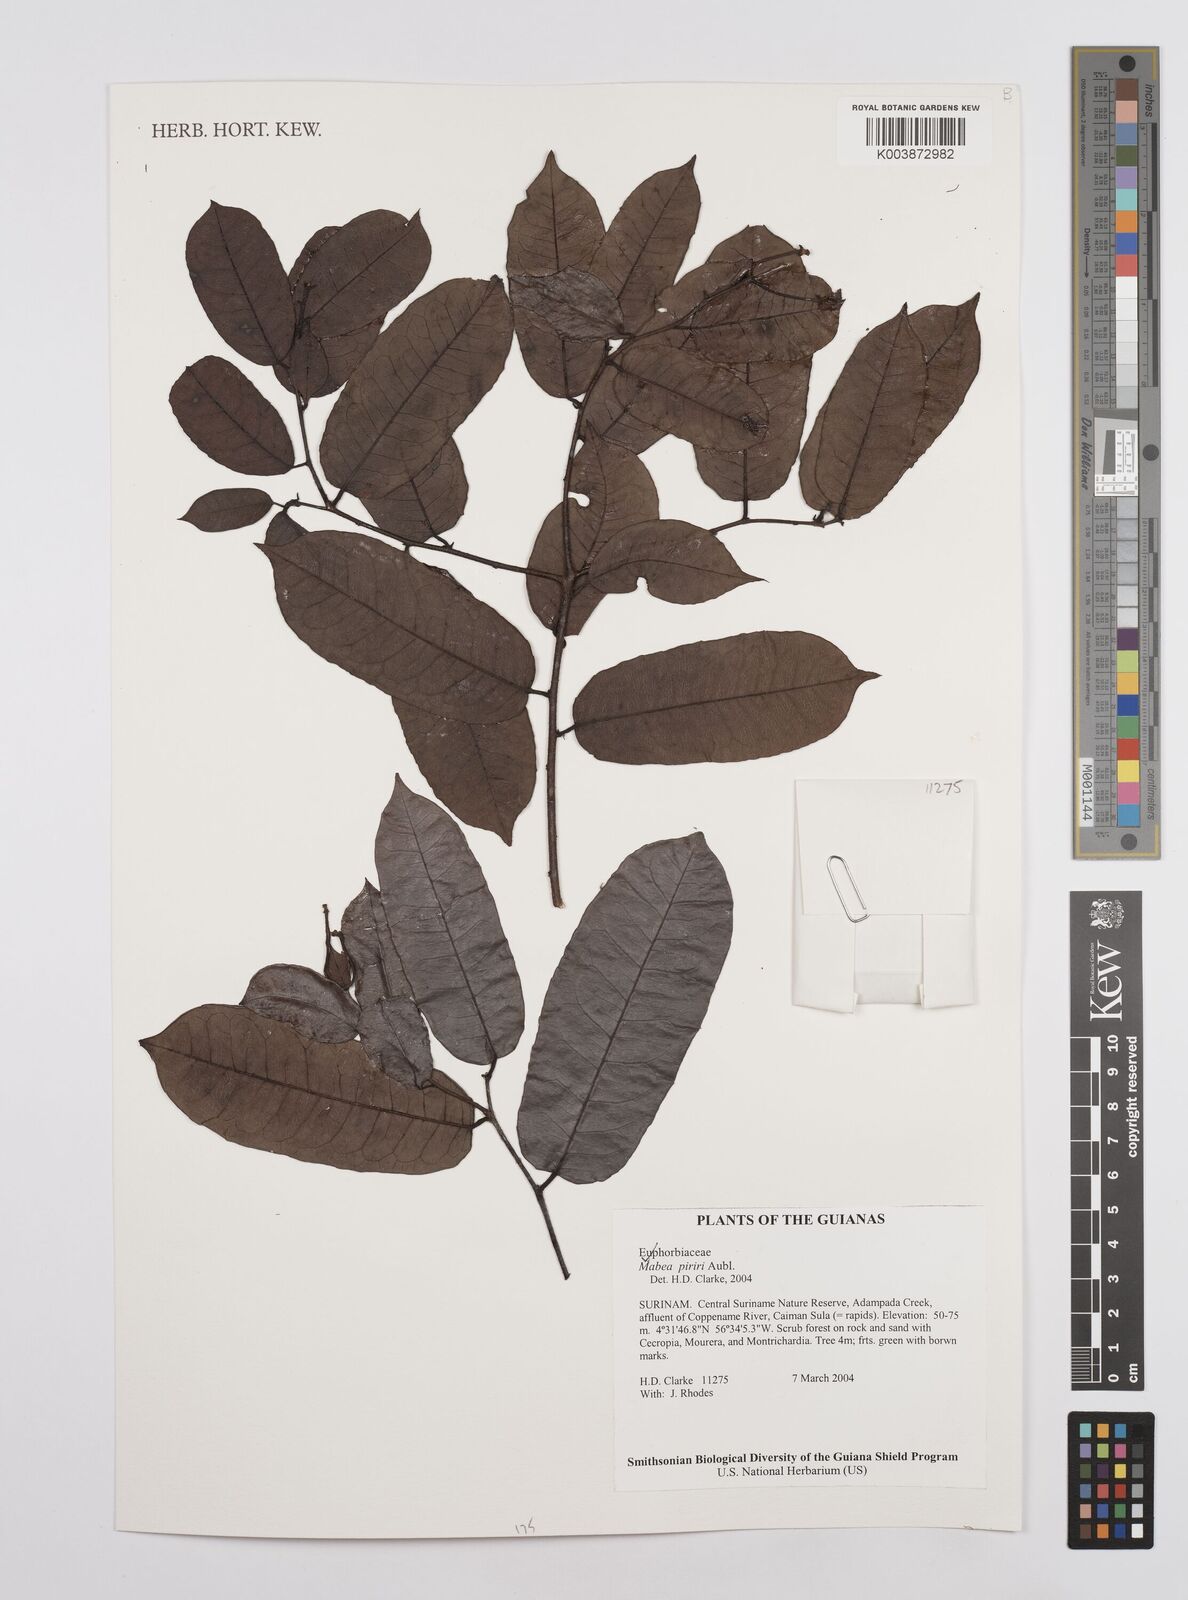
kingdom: Plantae
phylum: Tracheophyta
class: Magnoliopsida
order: Malpighiales
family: Euphorbiaceae
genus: Mabea
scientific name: Mabea piriri
